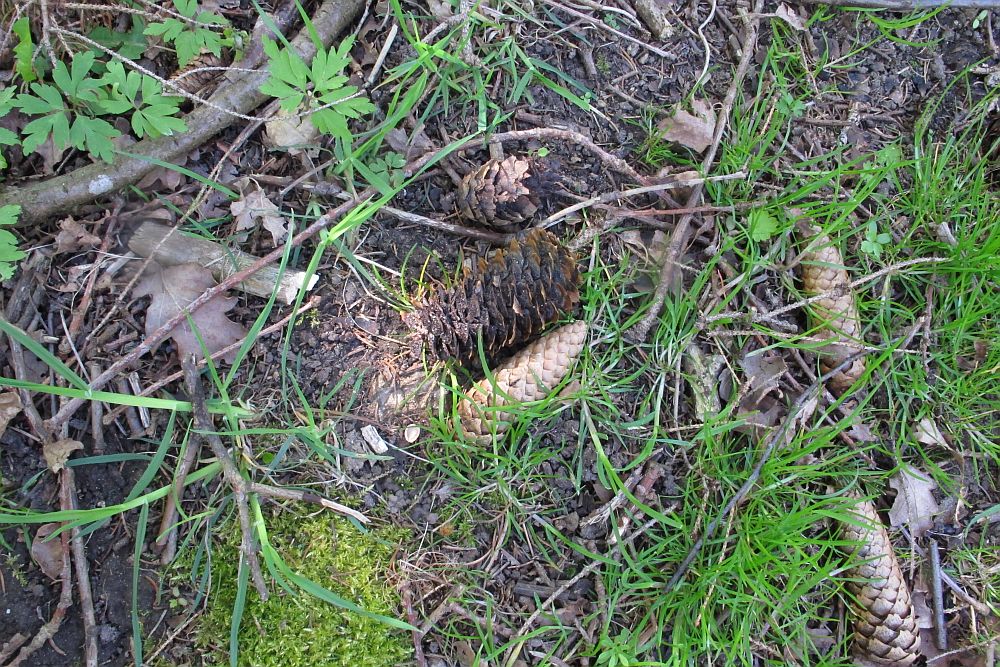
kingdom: Fungi
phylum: Basidiomycota
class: Pucciniomycetes
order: Pucciniales
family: Pucciniastraceae
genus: Thekopsora
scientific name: Thekopsora areolata
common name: grankogle-nålerust
